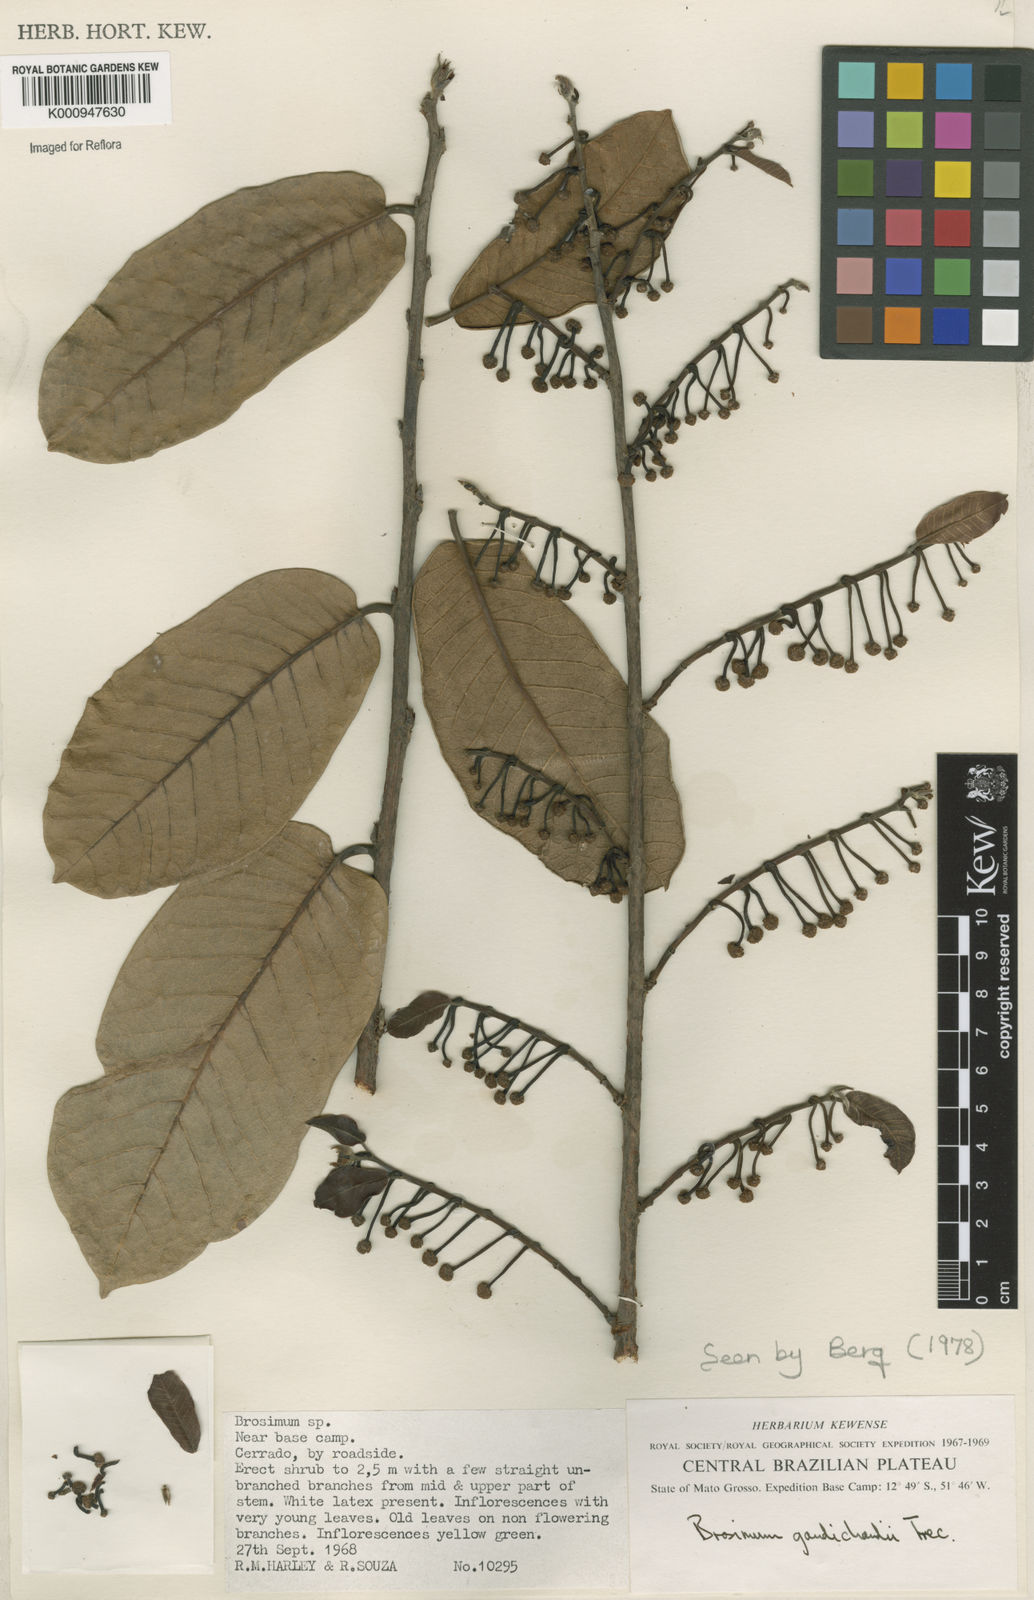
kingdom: Plantae
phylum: Tracheophyta
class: Magnoliopsida
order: Rosales
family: Moraceae
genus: Brosimum
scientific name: Brosimum
